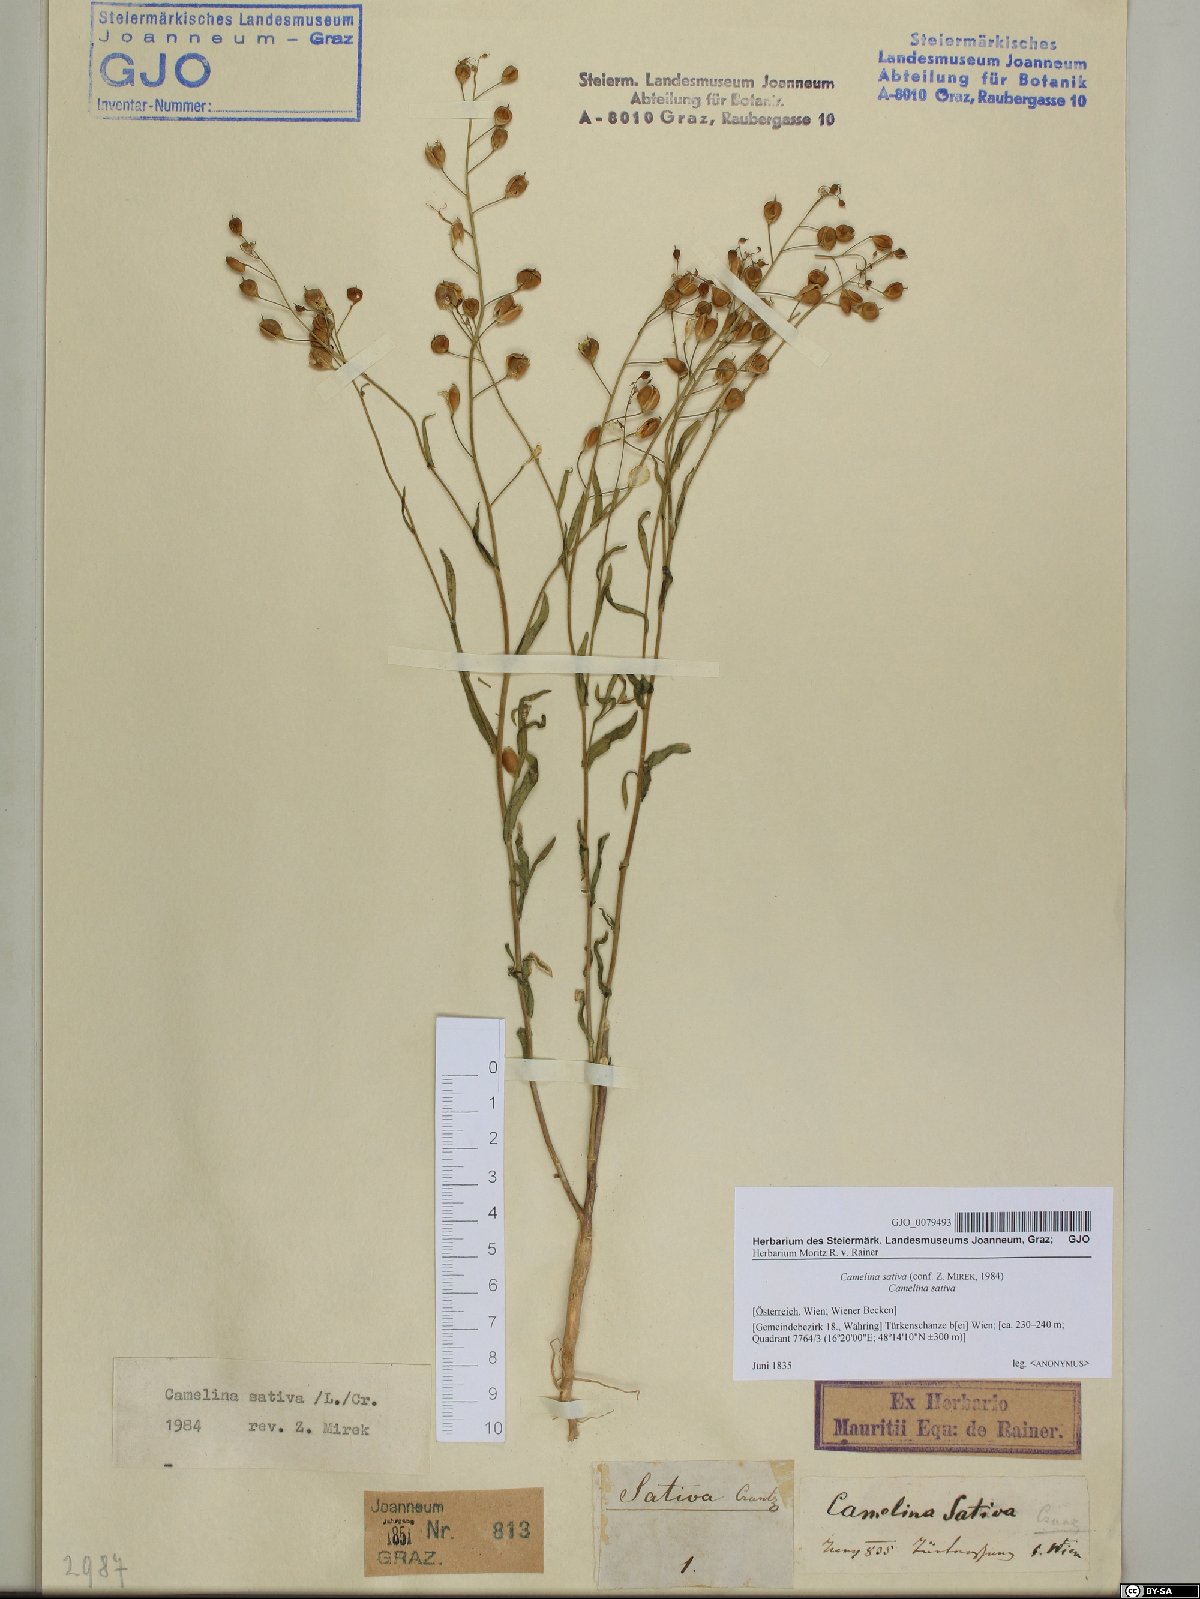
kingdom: Plantae
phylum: Tracheophyta
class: Magnoliopsida
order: Brassicales
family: Brassicaceae
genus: Camelina
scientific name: Camelina sativa
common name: Gold-of-pleasure
